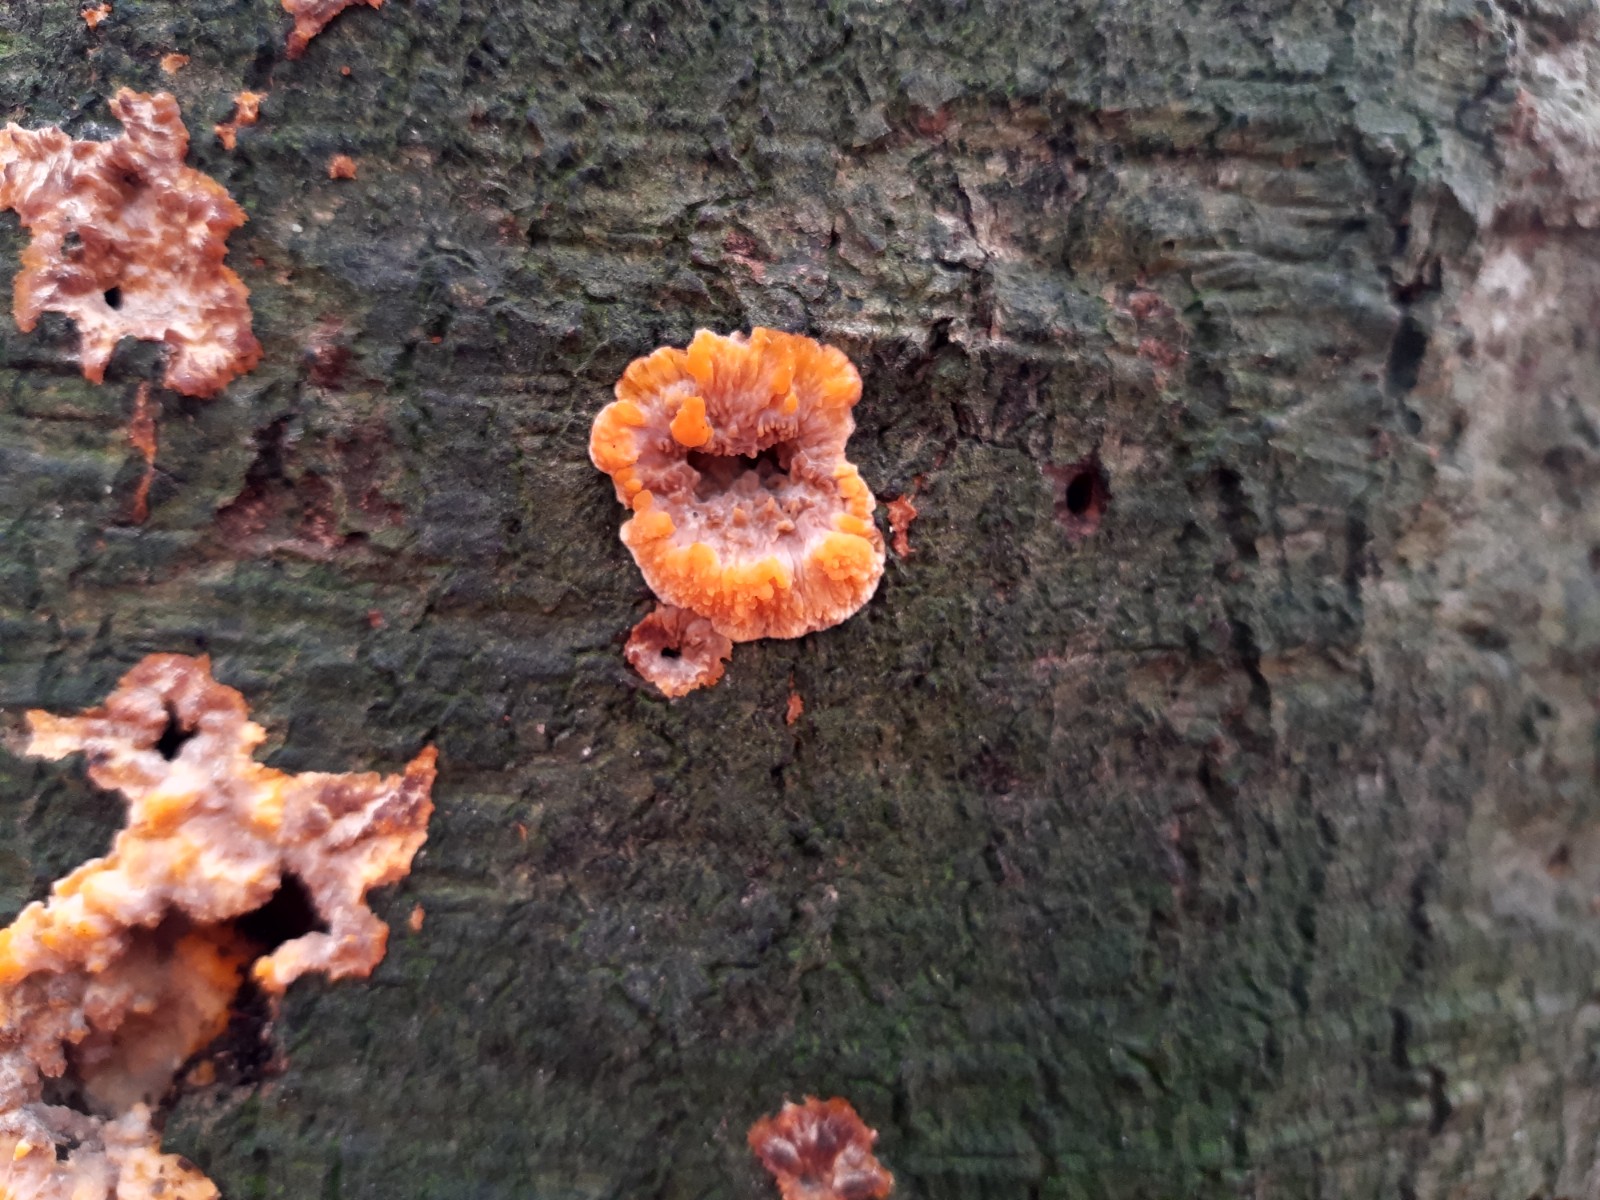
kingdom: Fungi
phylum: Basidiomycota
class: Agaricomycetes
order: Polyporales
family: Meruliaceae
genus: Phlebia
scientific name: Phlebia radiata
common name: stråle-åresvamp
